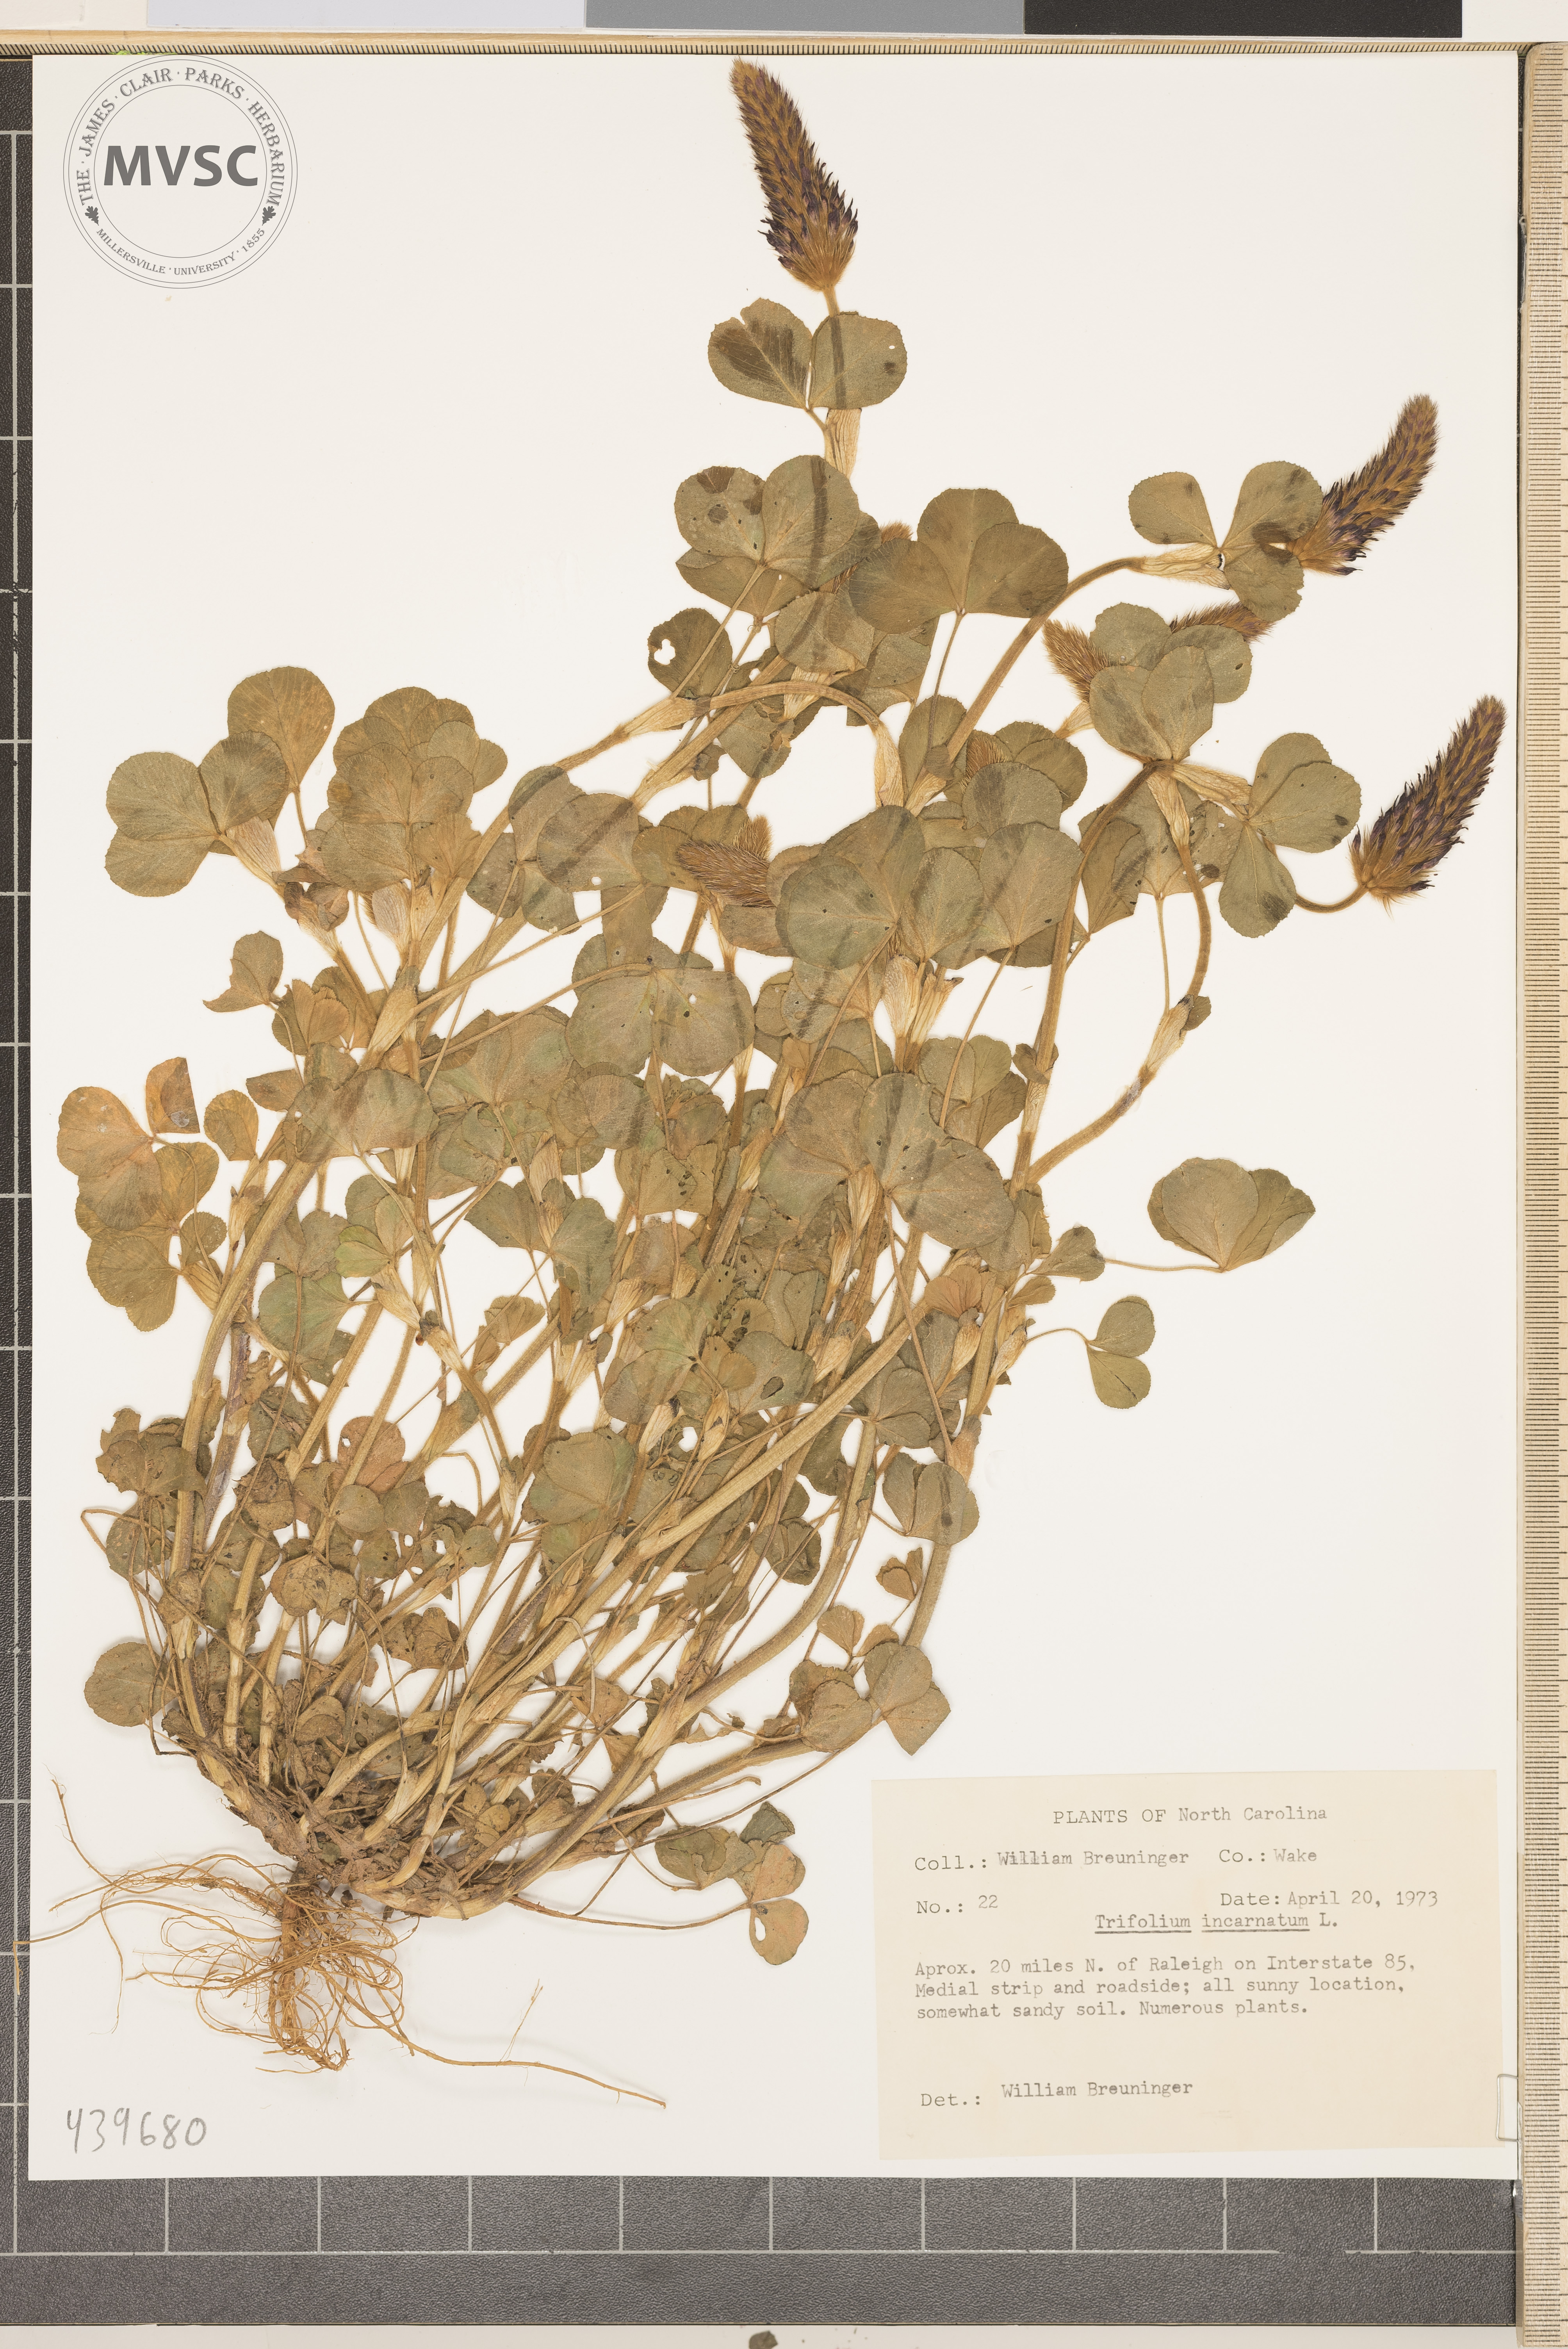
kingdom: Plantae
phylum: Tracheophyta
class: Magnoliopsida
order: Fabales
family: Fabaceae
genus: Trifolium
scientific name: Trifolium incarnatum
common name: Crimson clover
